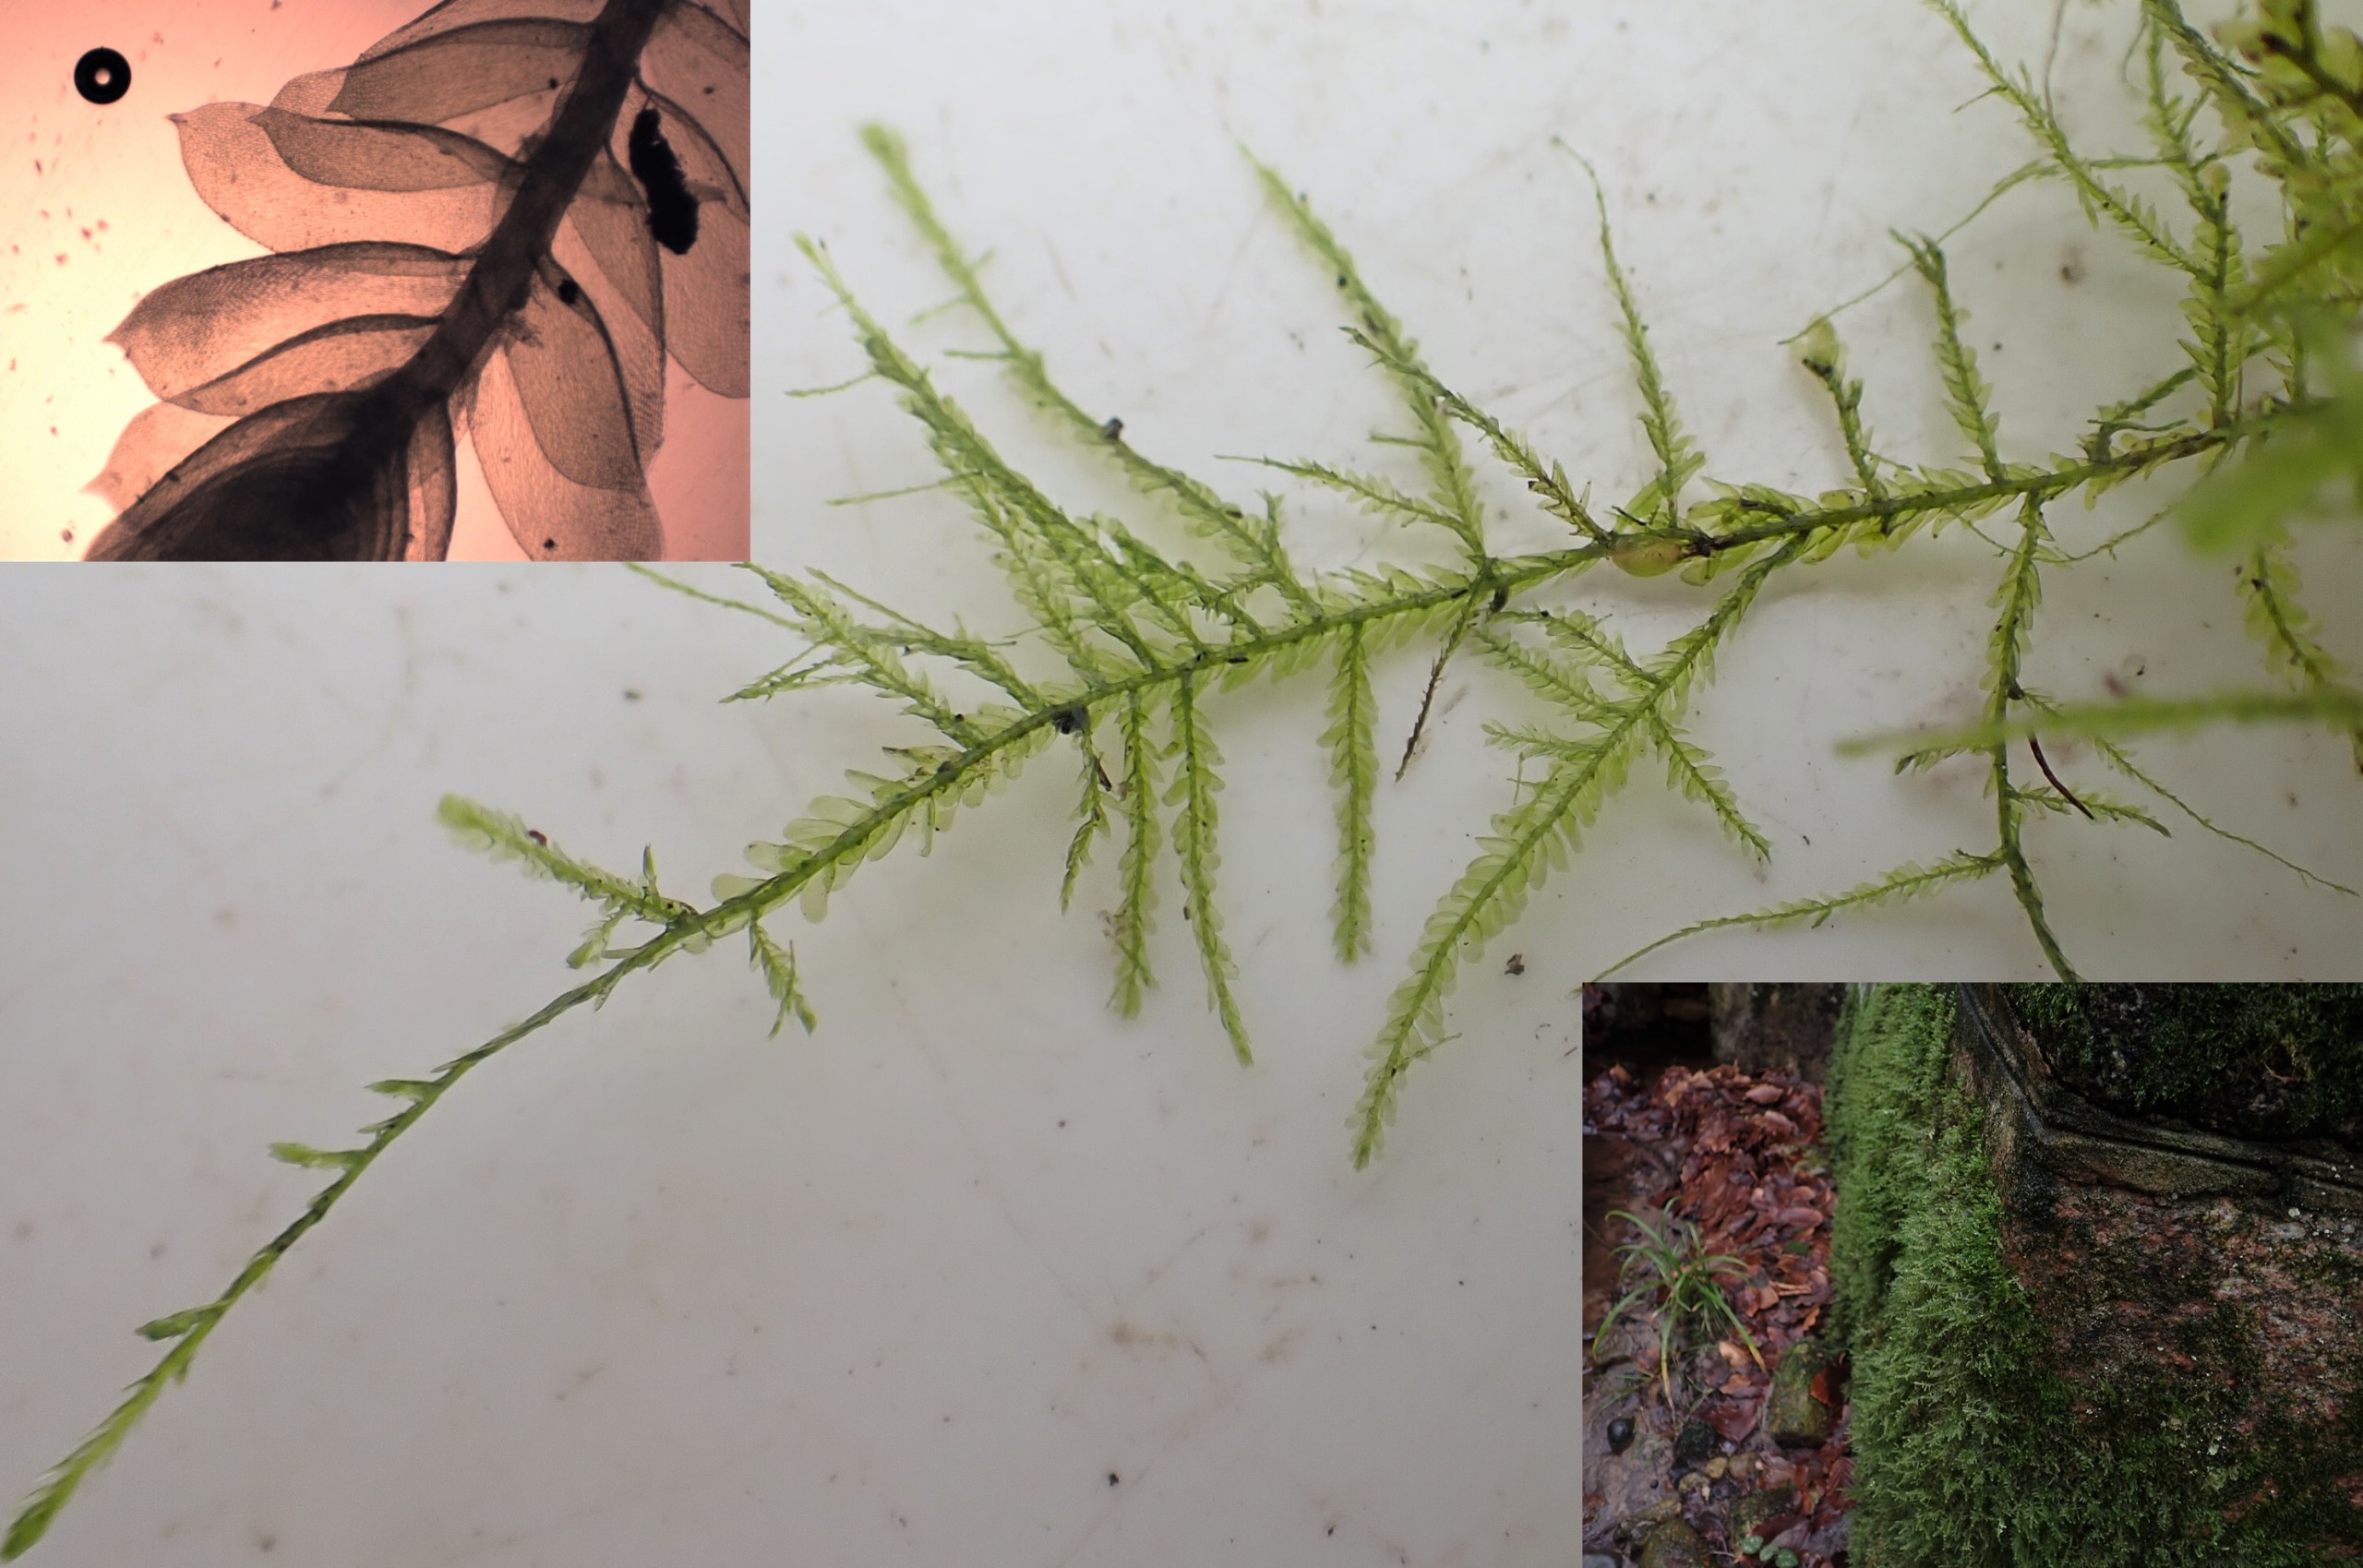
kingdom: Plantae
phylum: Bryophyta
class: Bryopsida
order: Hypnales
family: Neckeraceae
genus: Alleniella
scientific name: Alleniella complanata
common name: Almindelig fladmos
